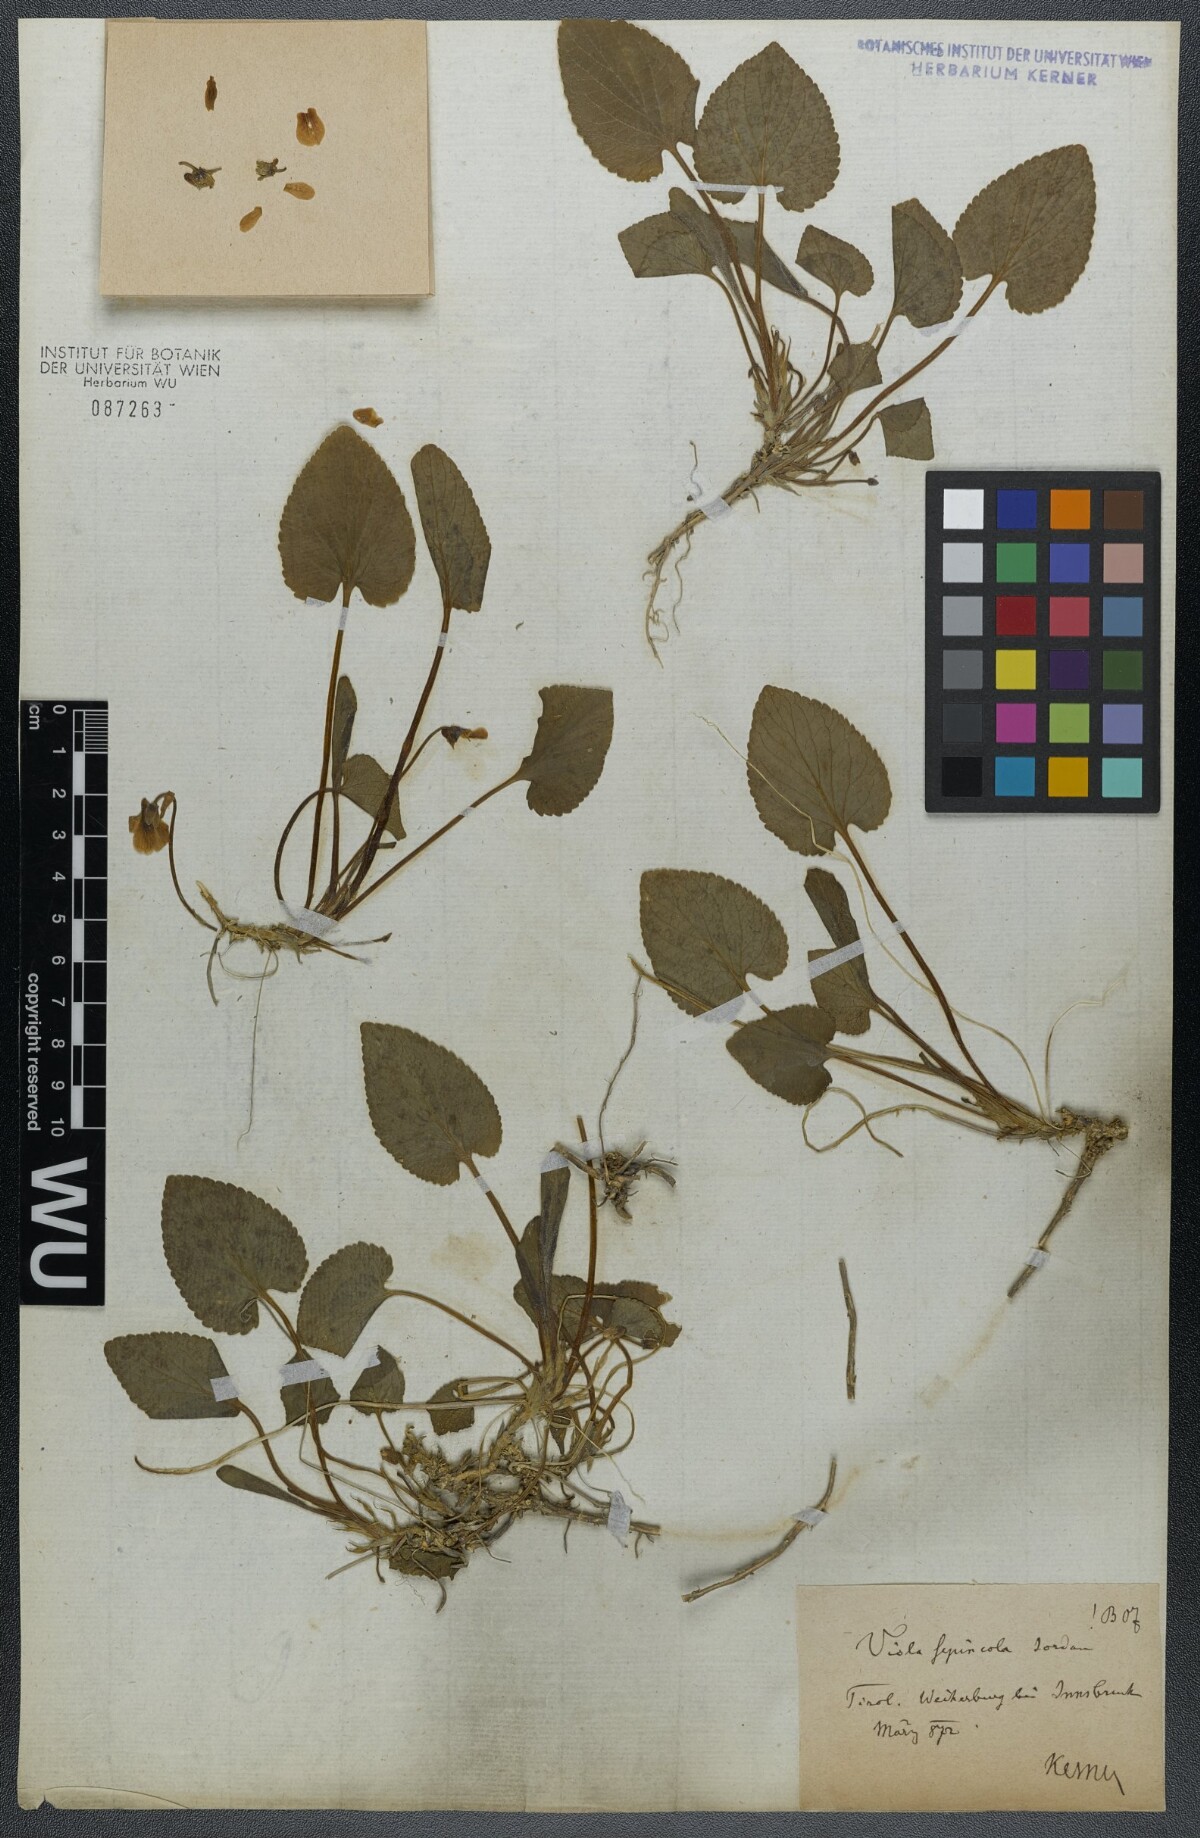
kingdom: Plantae
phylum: Tracheophyta
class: Magnoliopsida
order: Malpighiales
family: Violaceae
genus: Viola
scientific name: Viola suavis
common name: Russian violet
